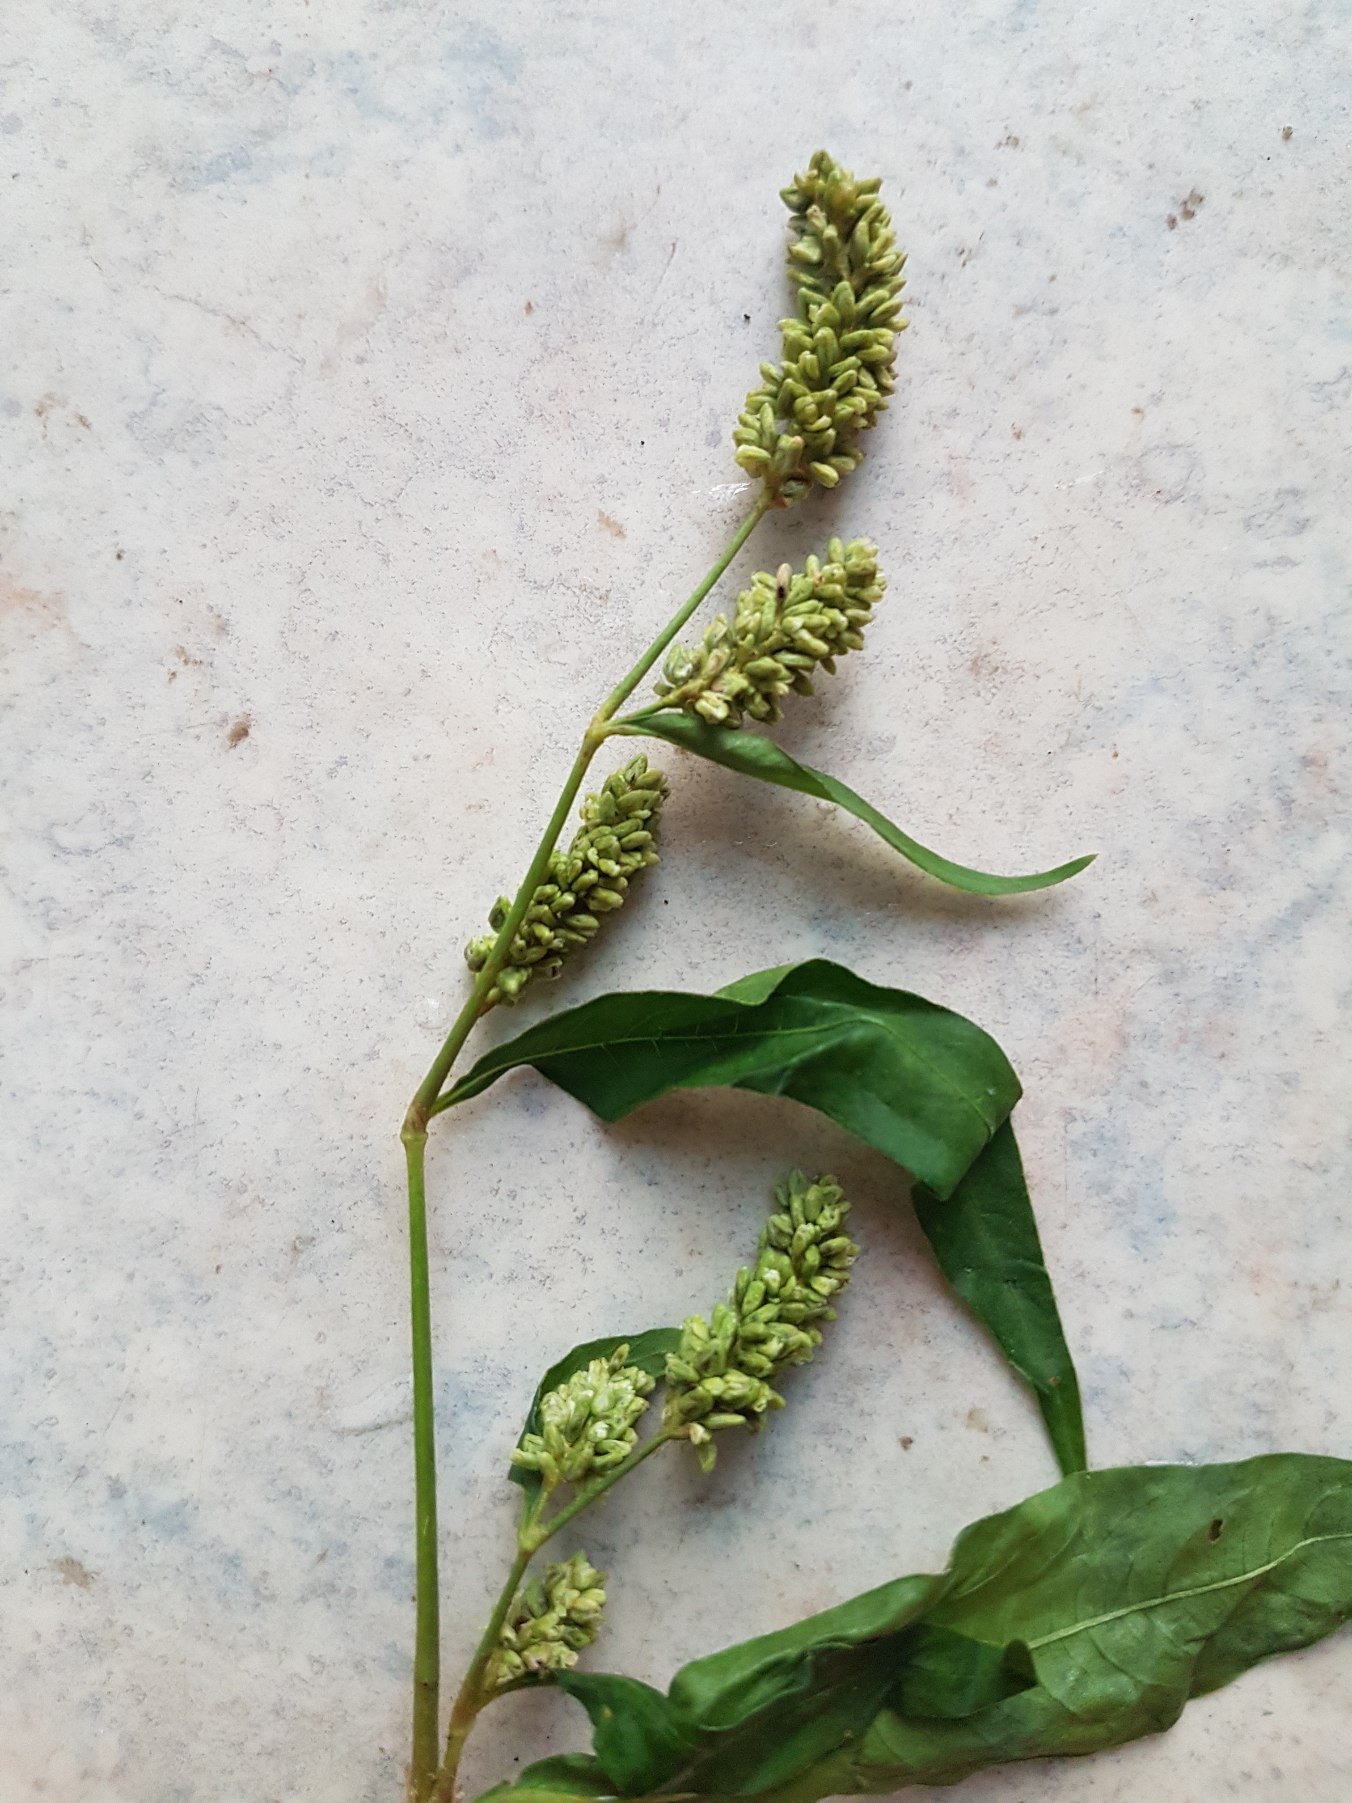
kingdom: Plantae
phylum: Tracheophyta
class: Magnoliopsida
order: Caryophyllales
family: Polygonaceae
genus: Persicaria
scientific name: Persicaria lapathifolia
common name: Bleg pileurt
